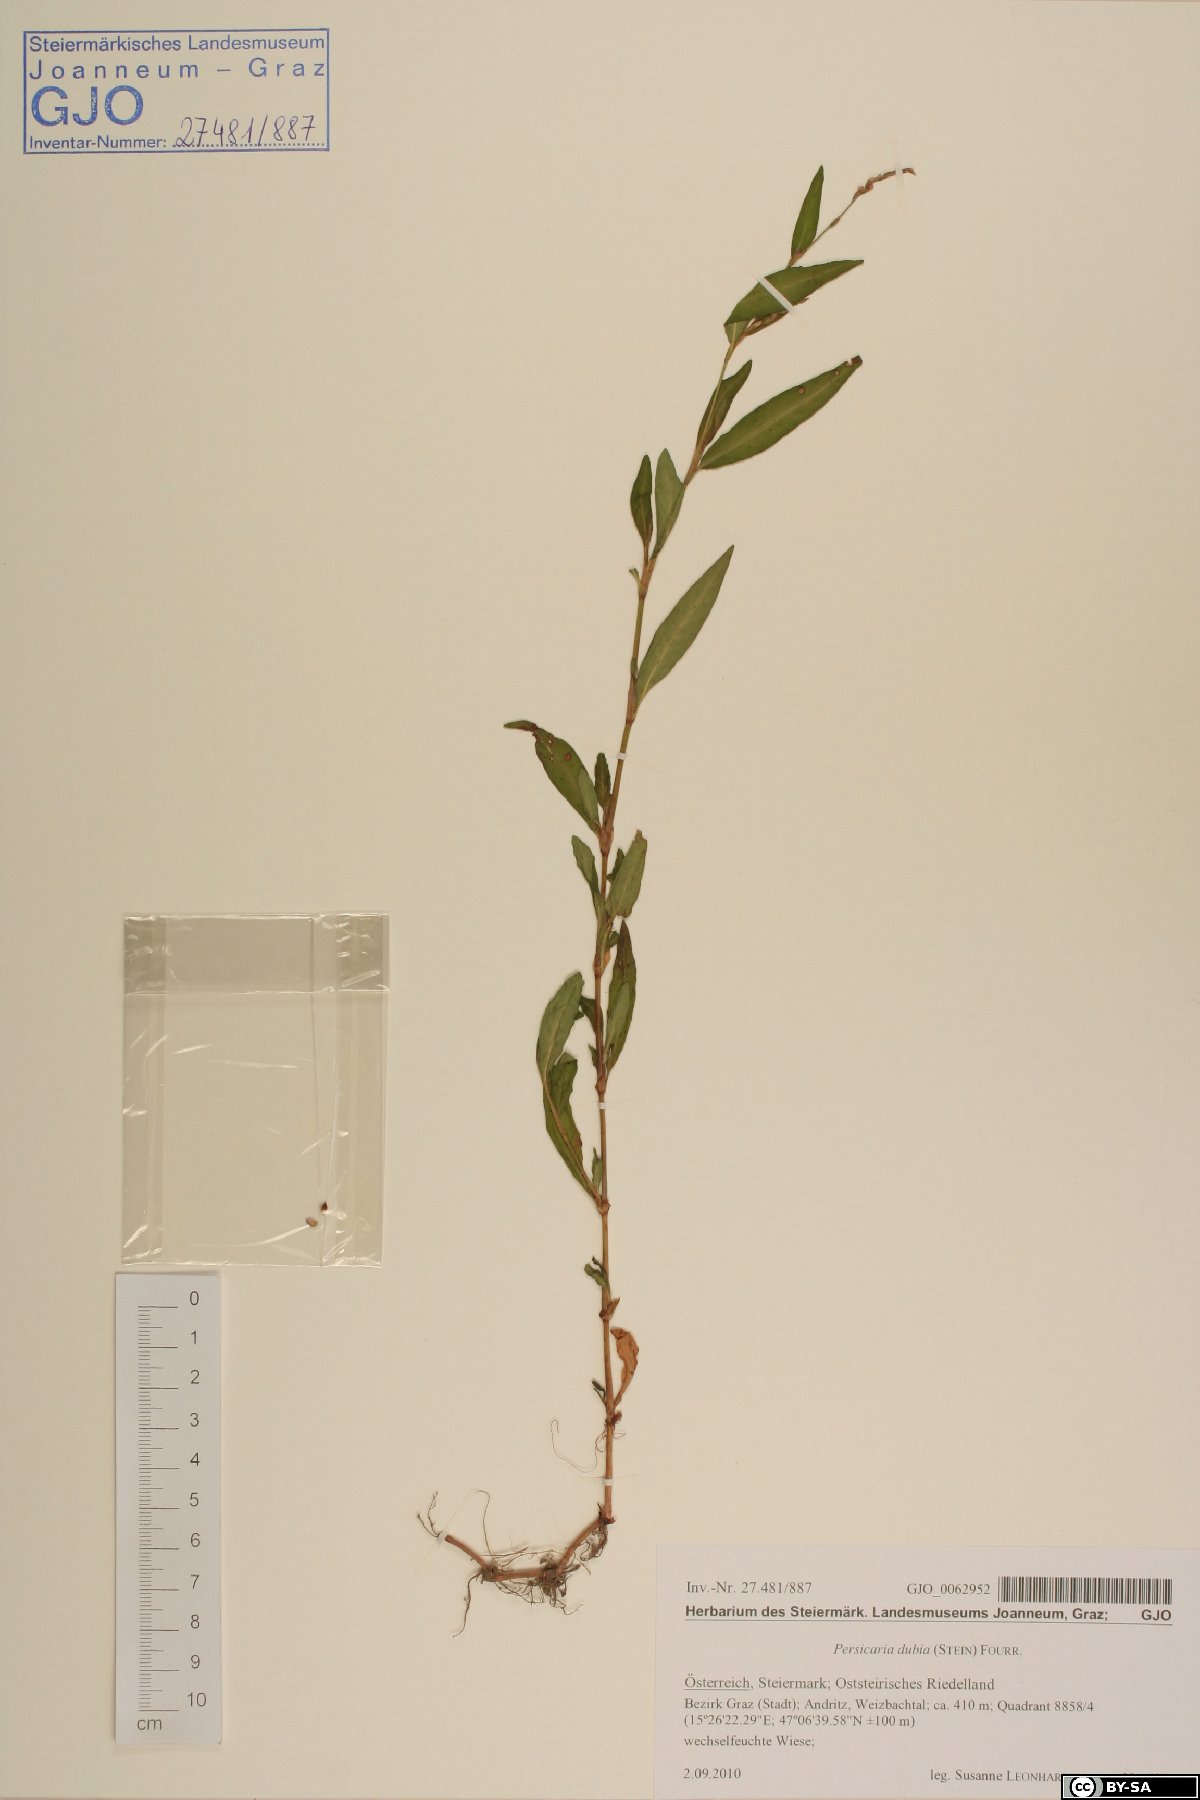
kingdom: Plantae
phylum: Tracheophyta
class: Magnoliopsida
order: Caryophyllales
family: Polygonaceae
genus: Persicaria
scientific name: Persicaria mitis
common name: Tasteless water-pepper
